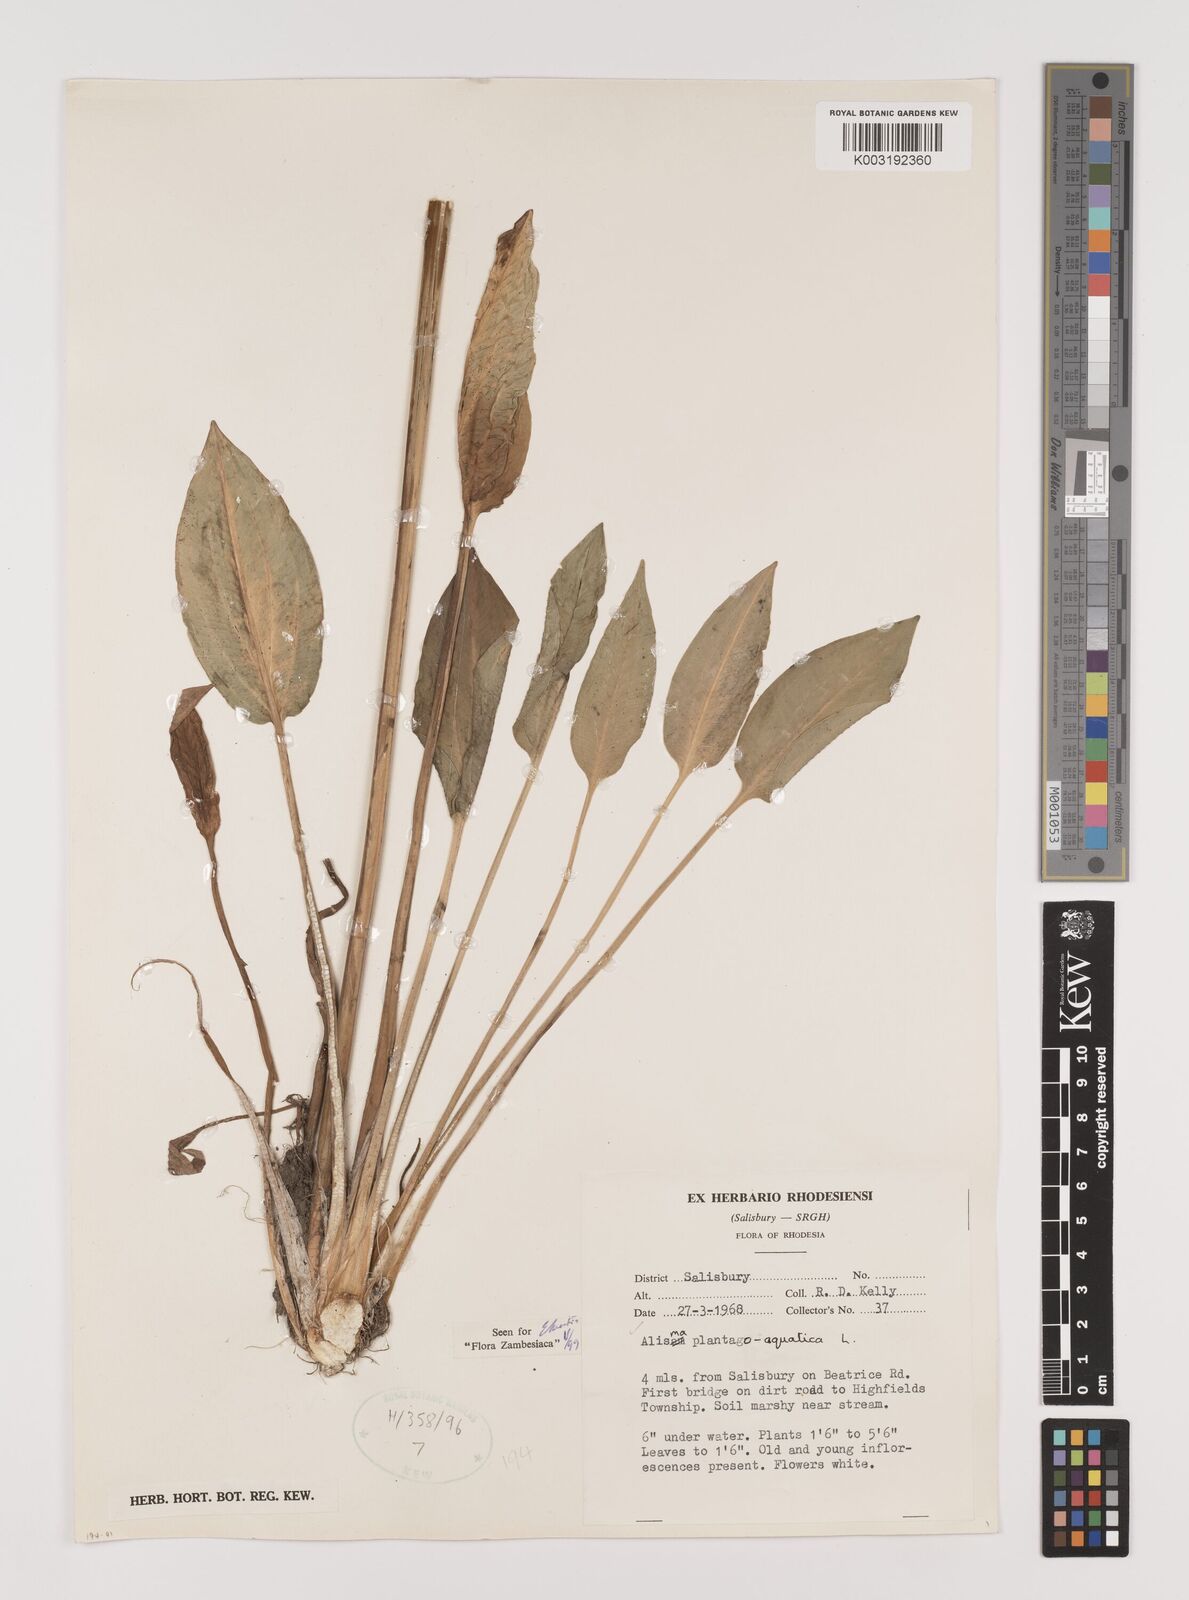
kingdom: Plantae
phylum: Tracheophyta
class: Liliopsida
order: Alismatales
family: Alismataceae
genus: Alisma
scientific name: Alisma plantago-aquatica
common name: Water-plantain
